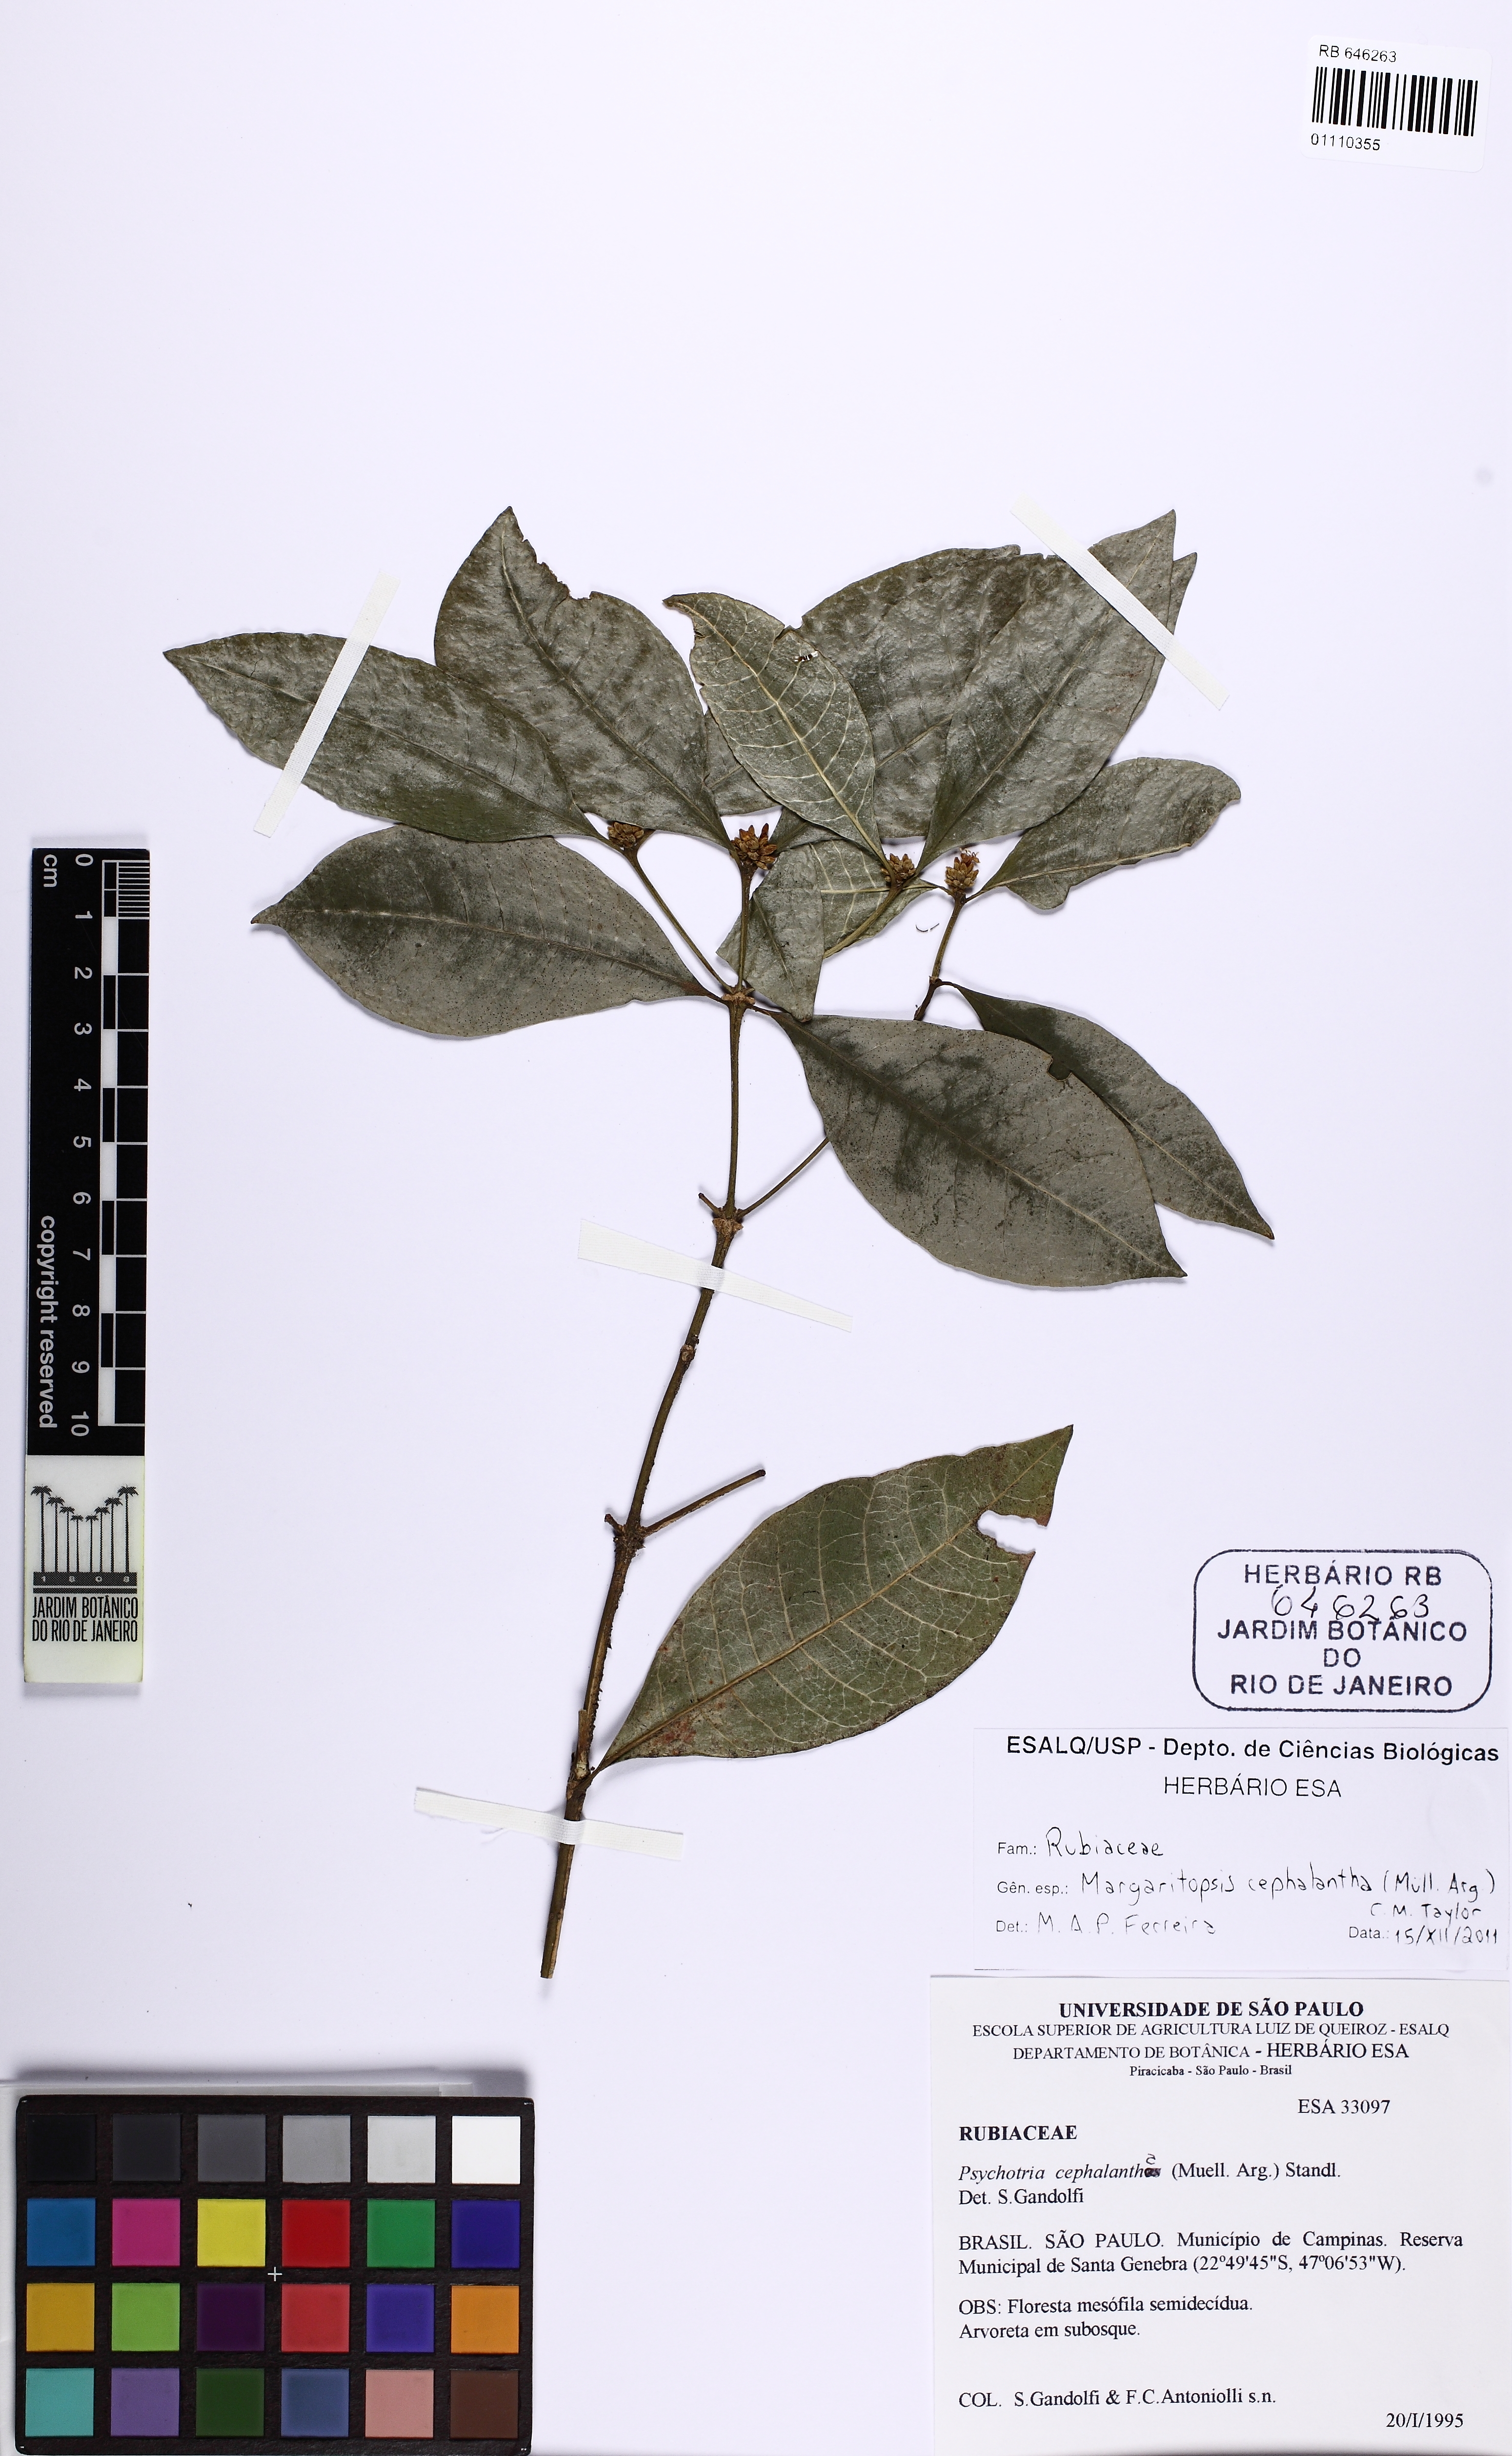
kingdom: Plantae
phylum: Tracheophyta
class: Magnoliopsida
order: Gentianales
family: Rubiaceae
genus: Eumachia
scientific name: Eumachia cephalantha
